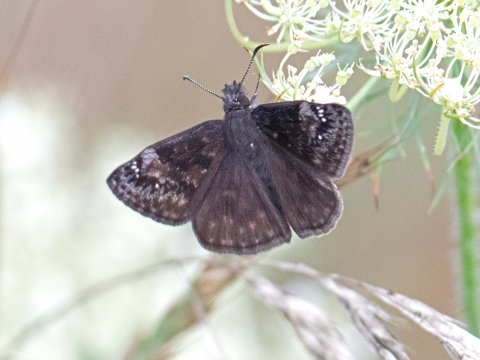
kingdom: Animalia
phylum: Arthropoda
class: Insecta
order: Lepidoptera
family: Hesperiidae
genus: Gesta
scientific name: Gesta
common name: Wild Indigo Duskywing
